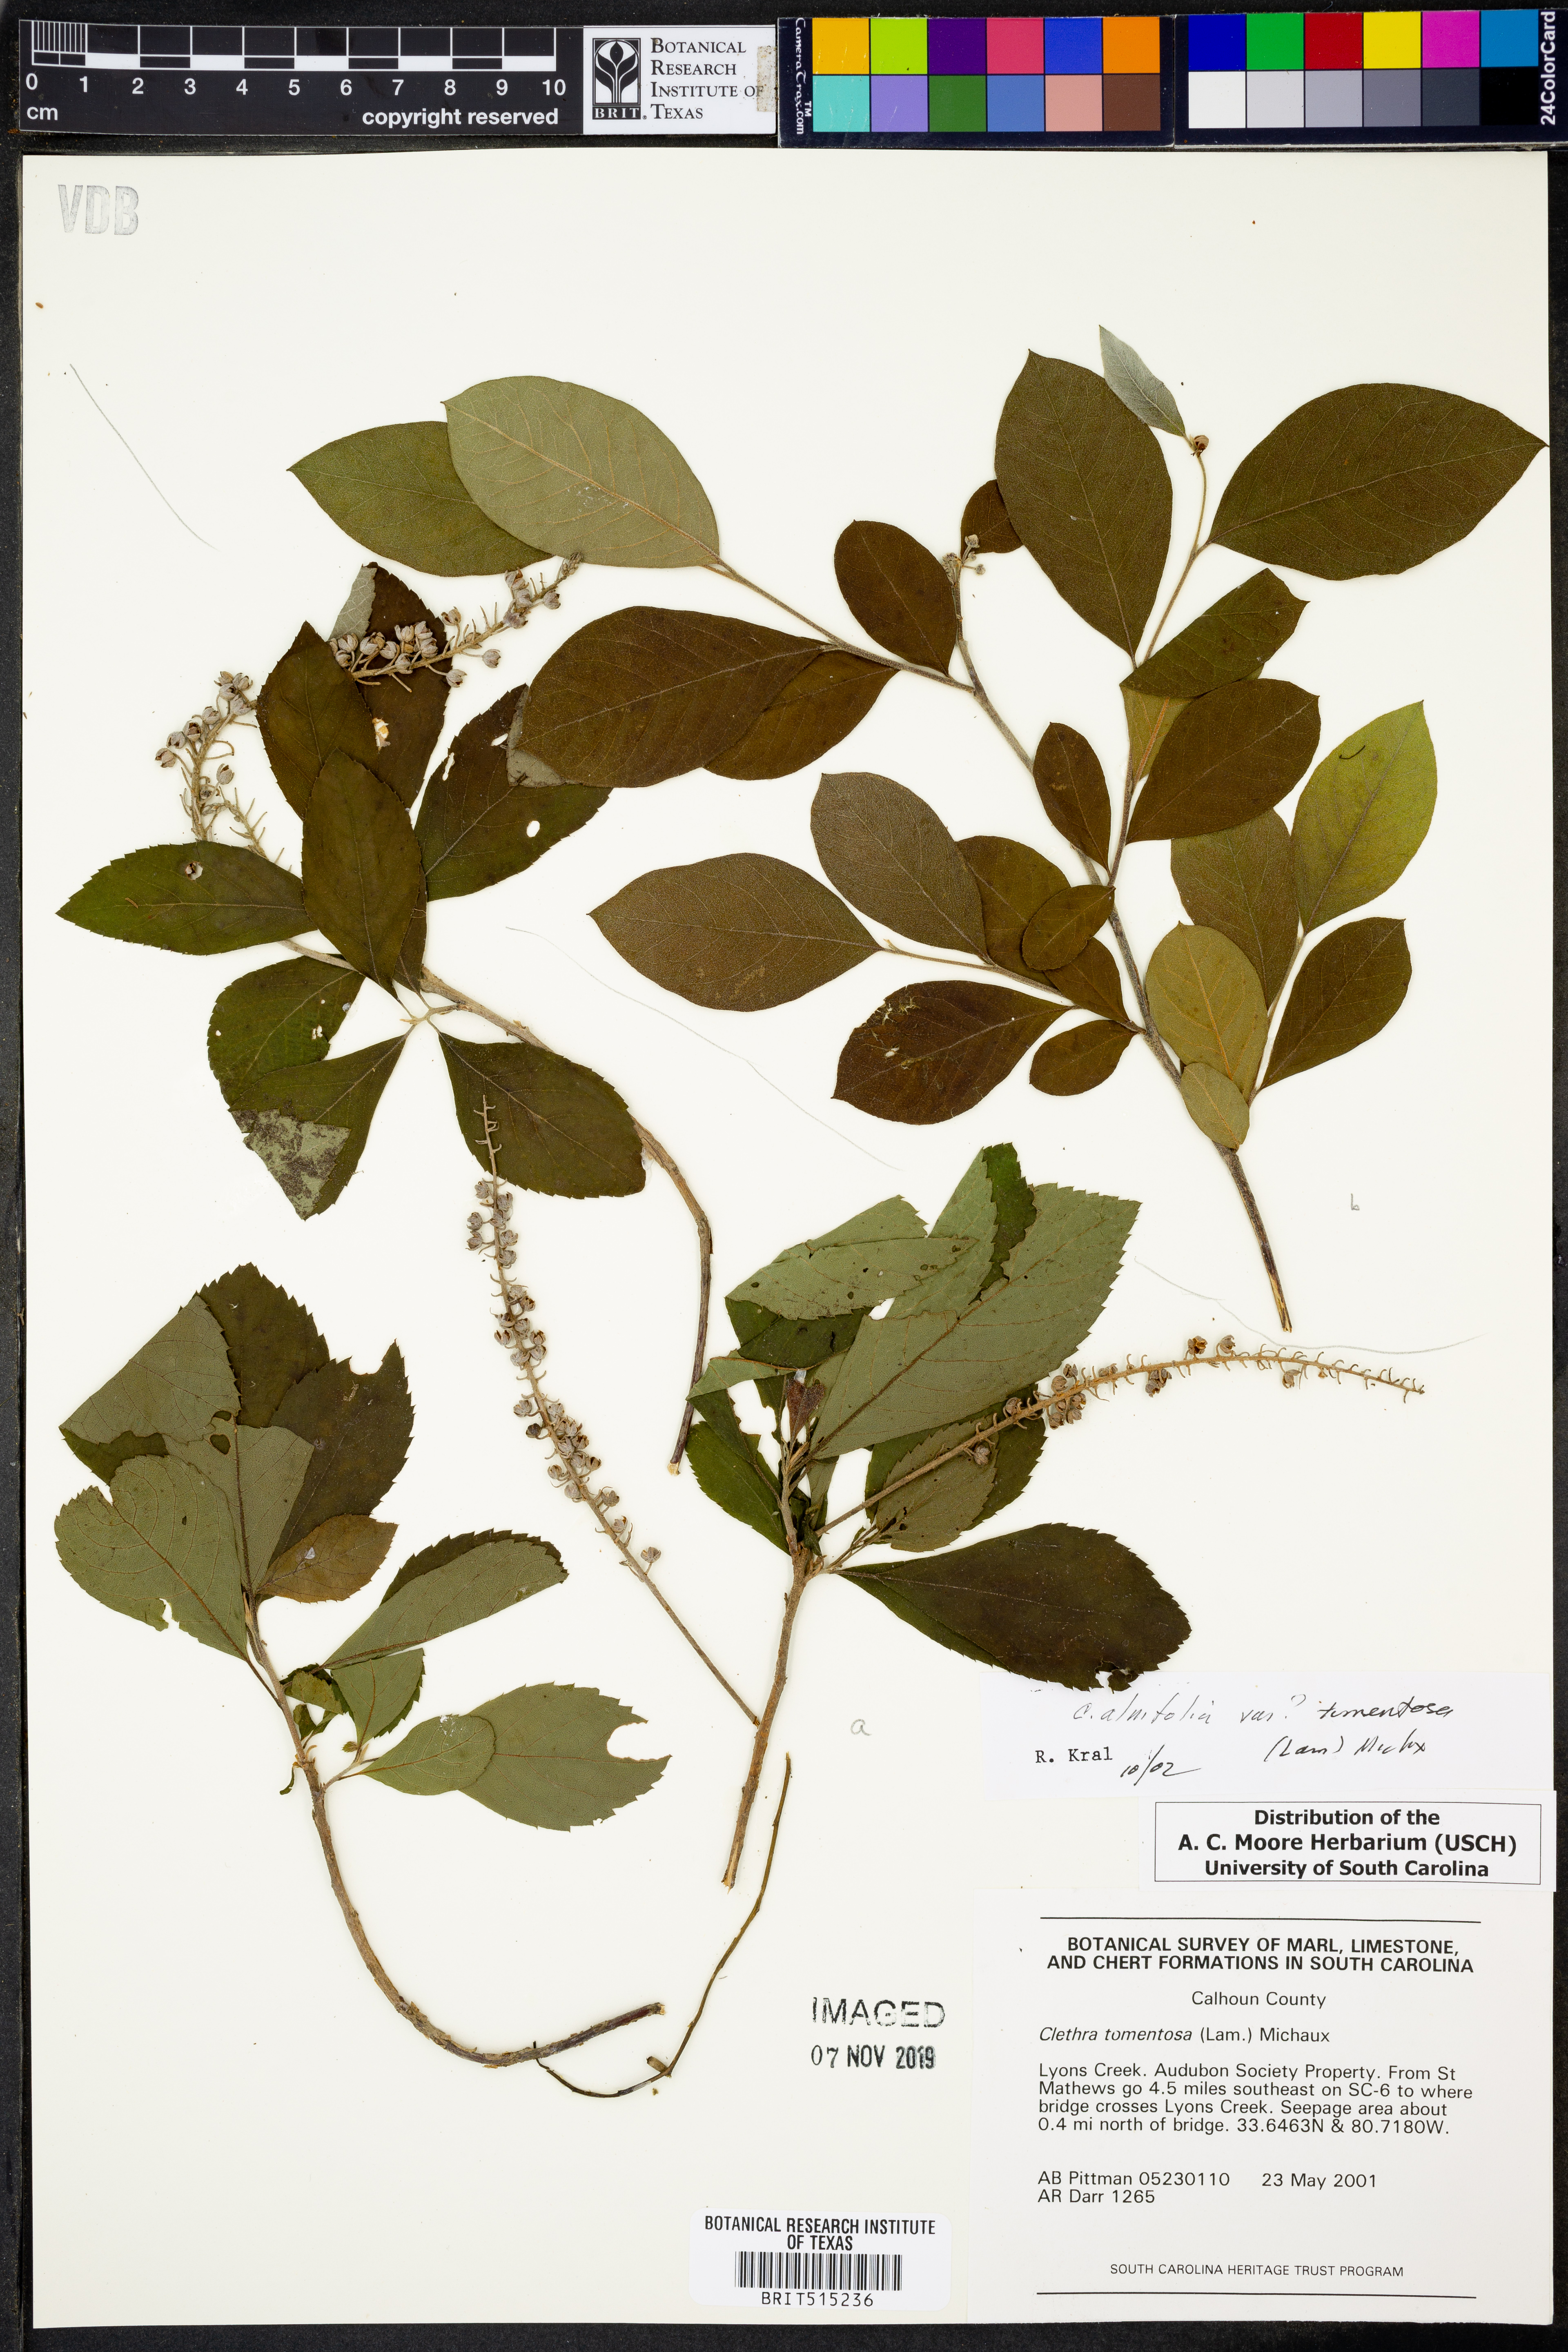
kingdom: Plantae
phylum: Tracheophyta
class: Magnoliopsida
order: Ericales
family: Clethraceae
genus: Clethra
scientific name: Clethra tomentosa
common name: Downy sweet pepperbush
